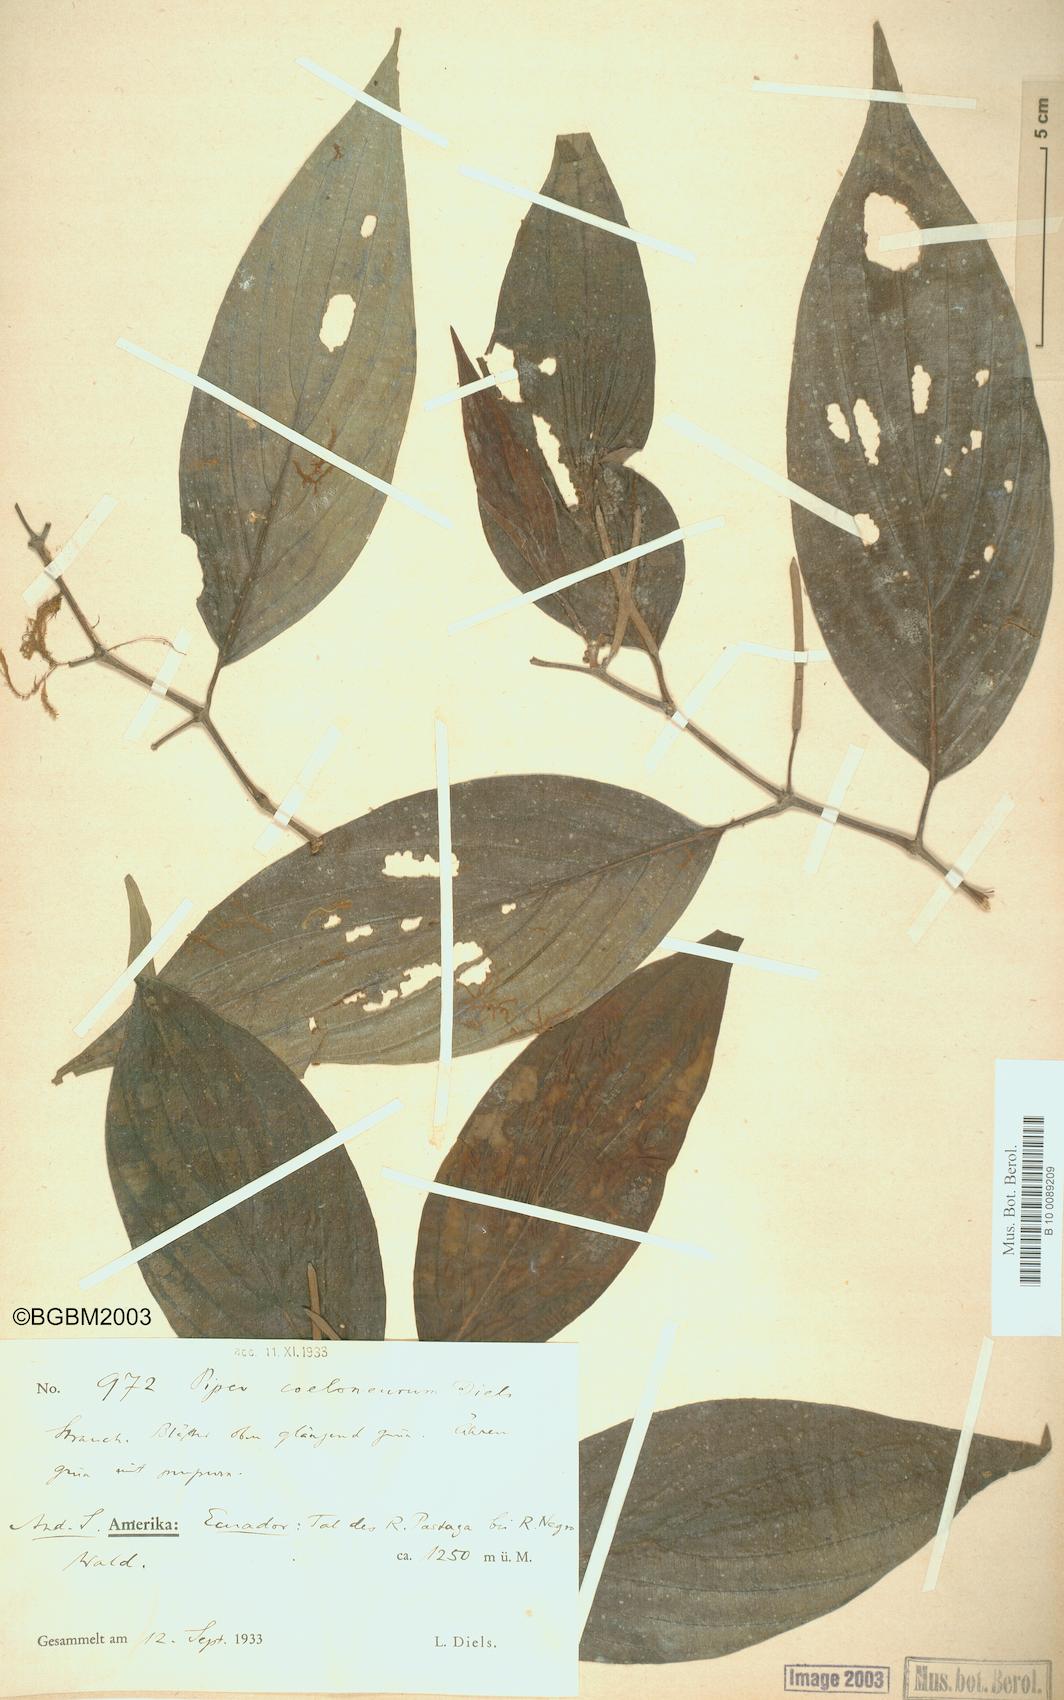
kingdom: Plantae
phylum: Tracheophyta
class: Magnoliopsida
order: Piperales
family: Piperaceae
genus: Piper
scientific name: Piper coeloneurum
